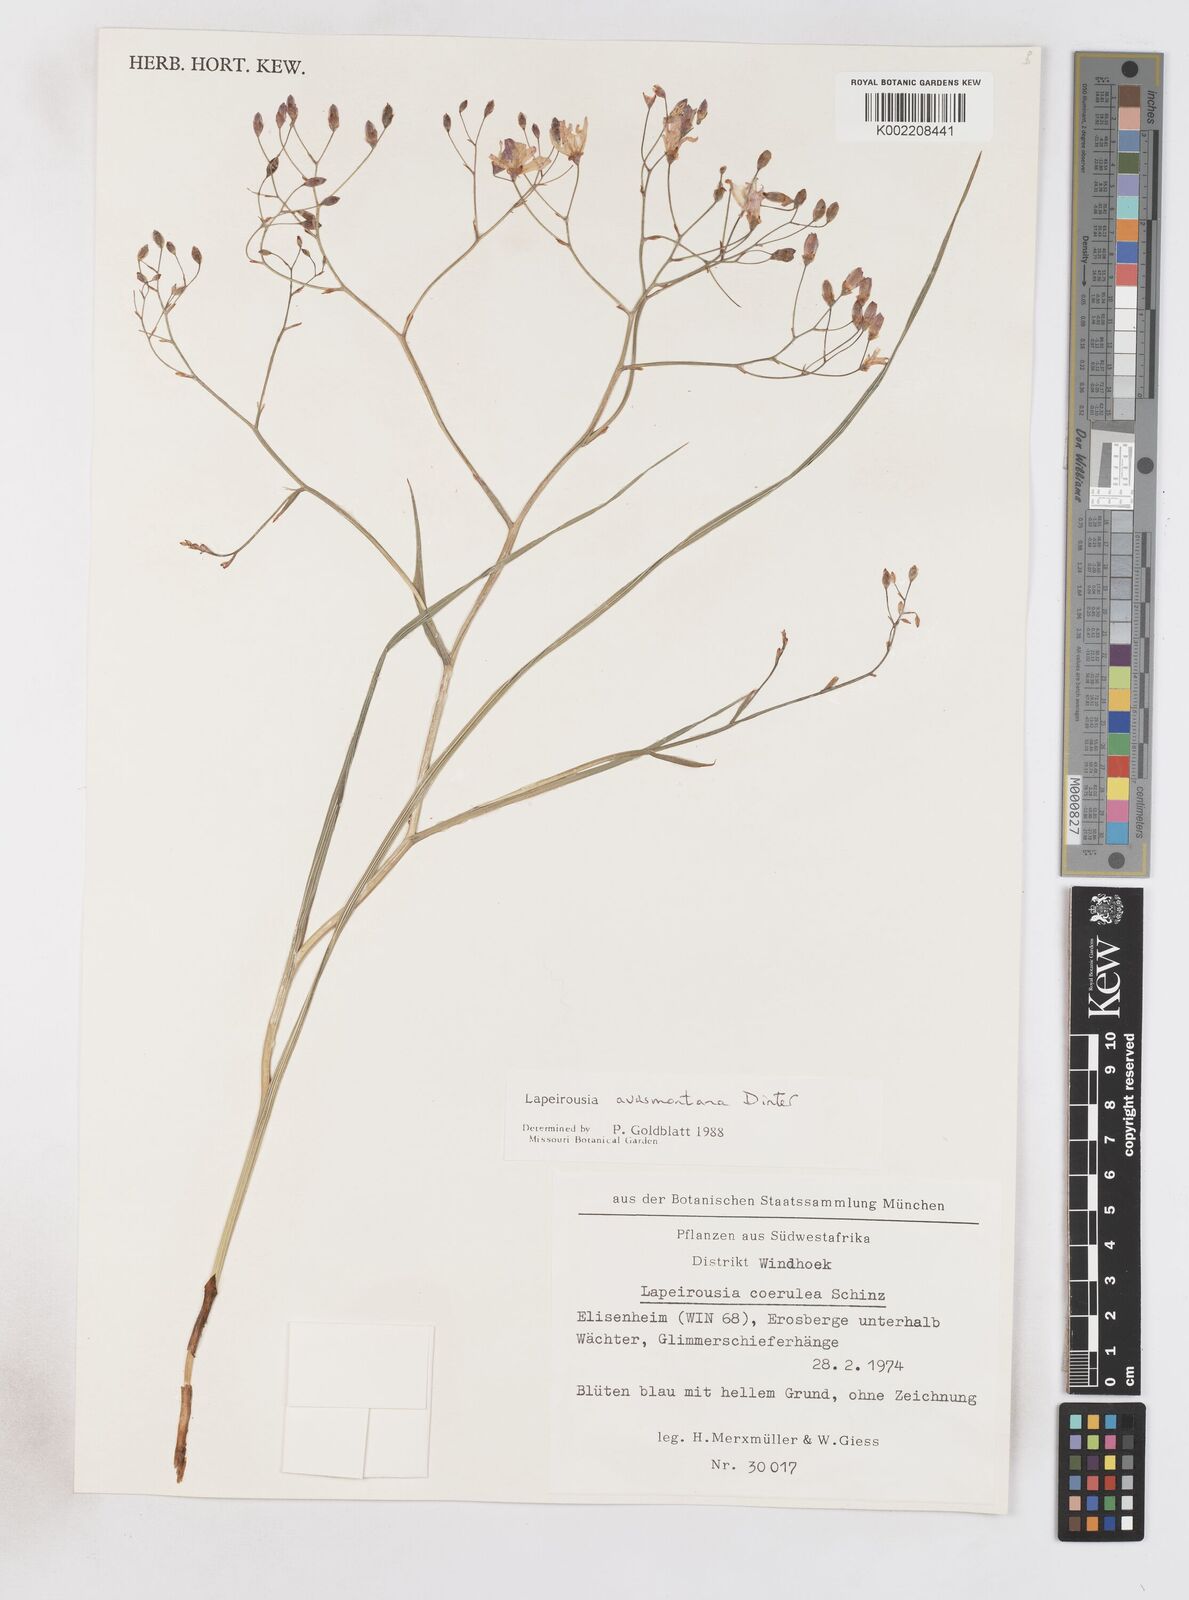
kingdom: Plantae
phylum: Tracheophyta
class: Liliopsida
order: Asparagales
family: Iridaceae
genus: Afrosolen
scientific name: Afrosolen avasmontanus
